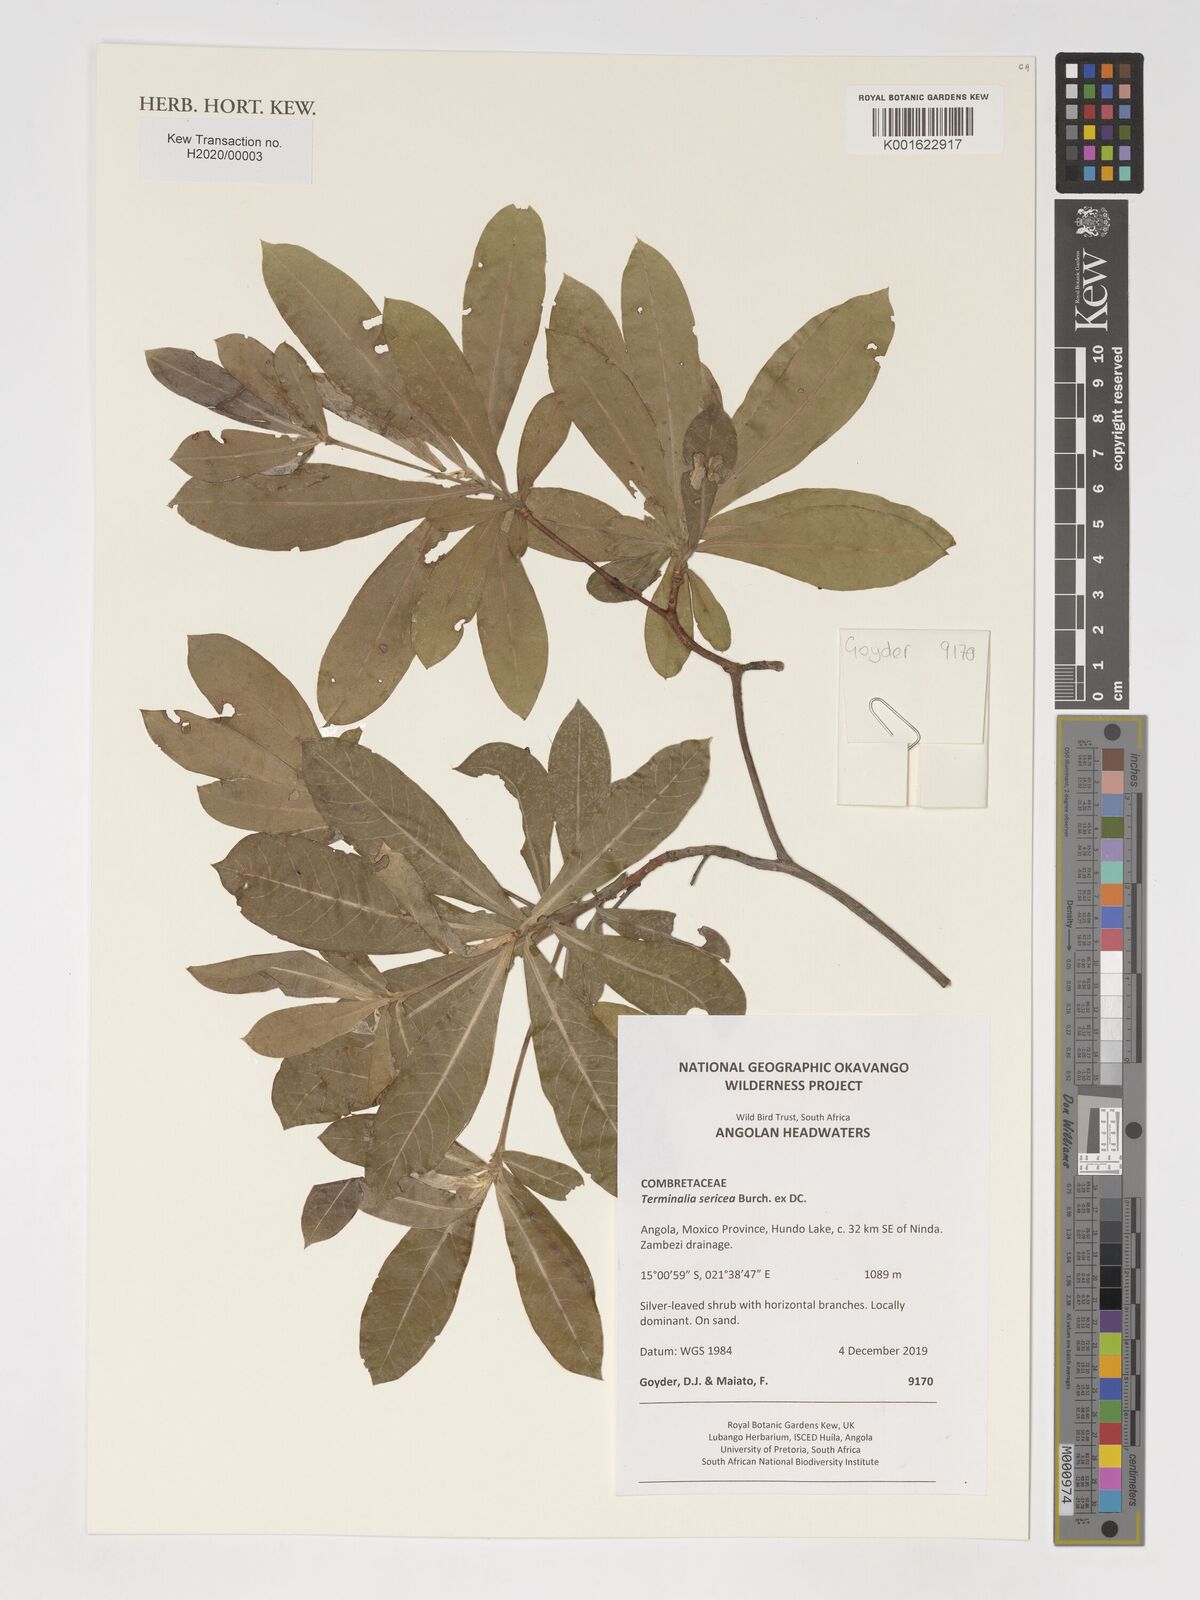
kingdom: Plantae
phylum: Tracheophyta
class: Magnoliopsida
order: Myrtales
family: Combretaceae
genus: Terminalia
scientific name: Terminalia sericea
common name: Clusterleaf
